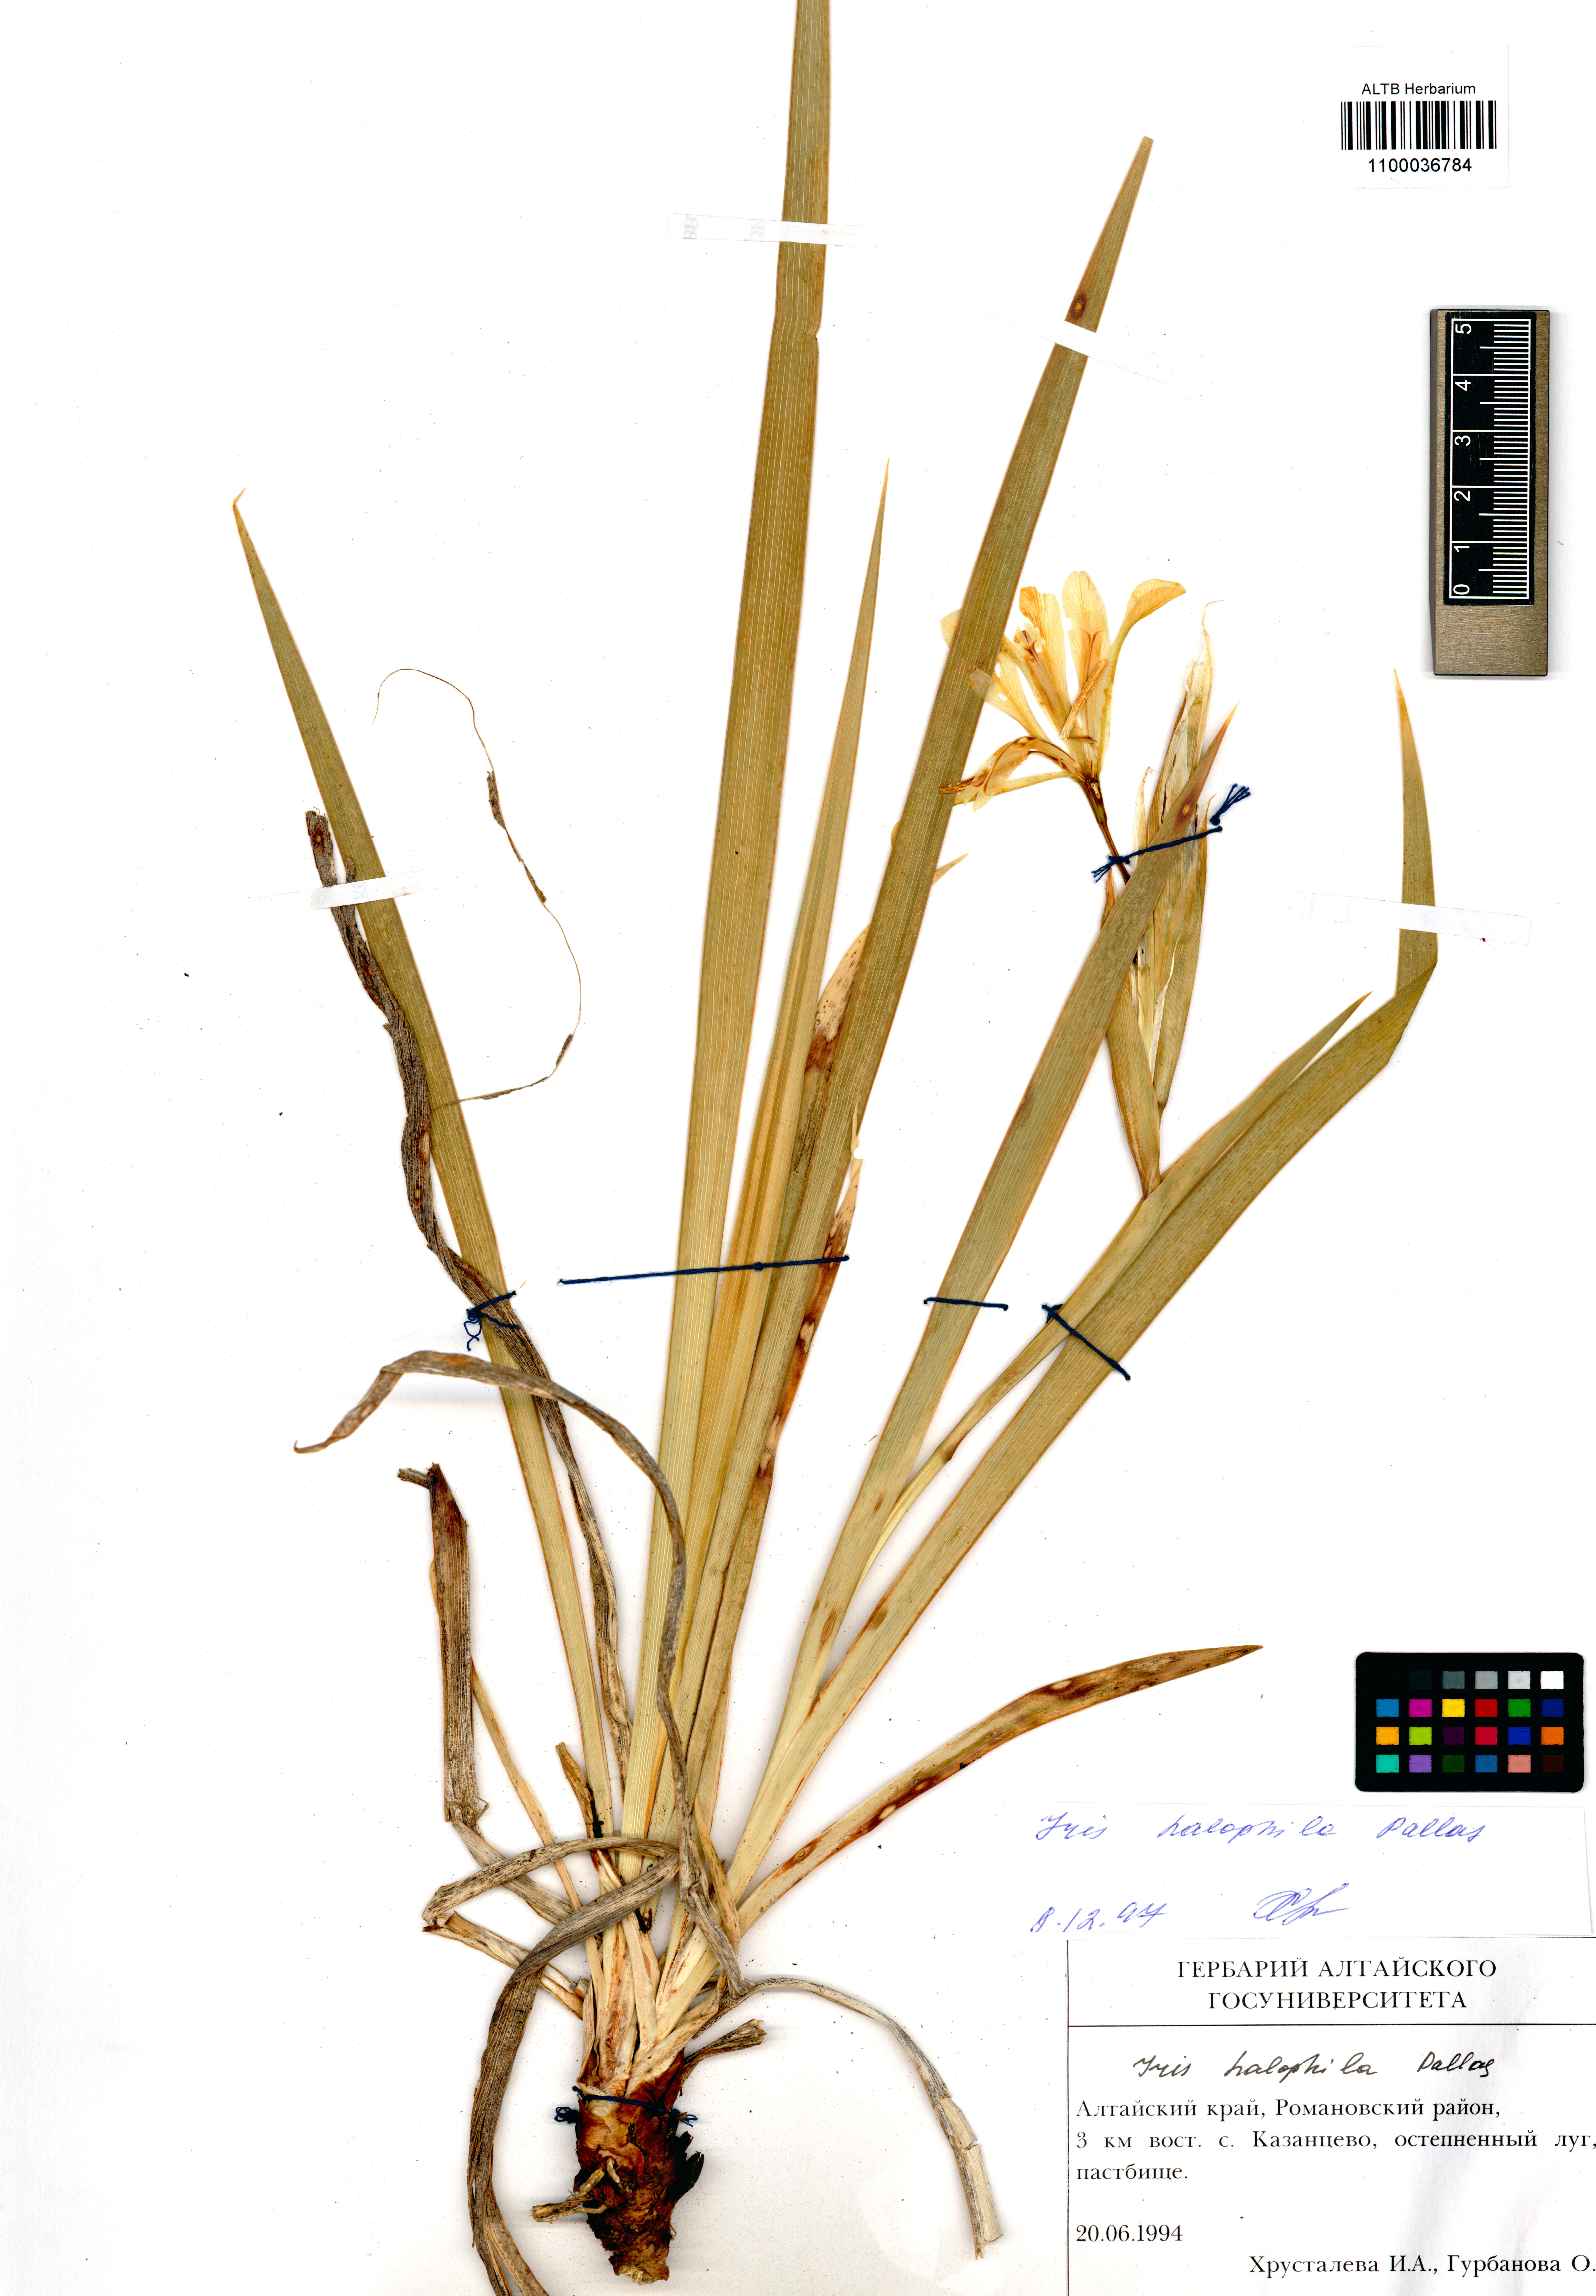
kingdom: Plantae
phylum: Tracheophyta
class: Liliopsida
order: Asparagales
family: Iridaceae
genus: Iris
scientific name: Iris halophila
